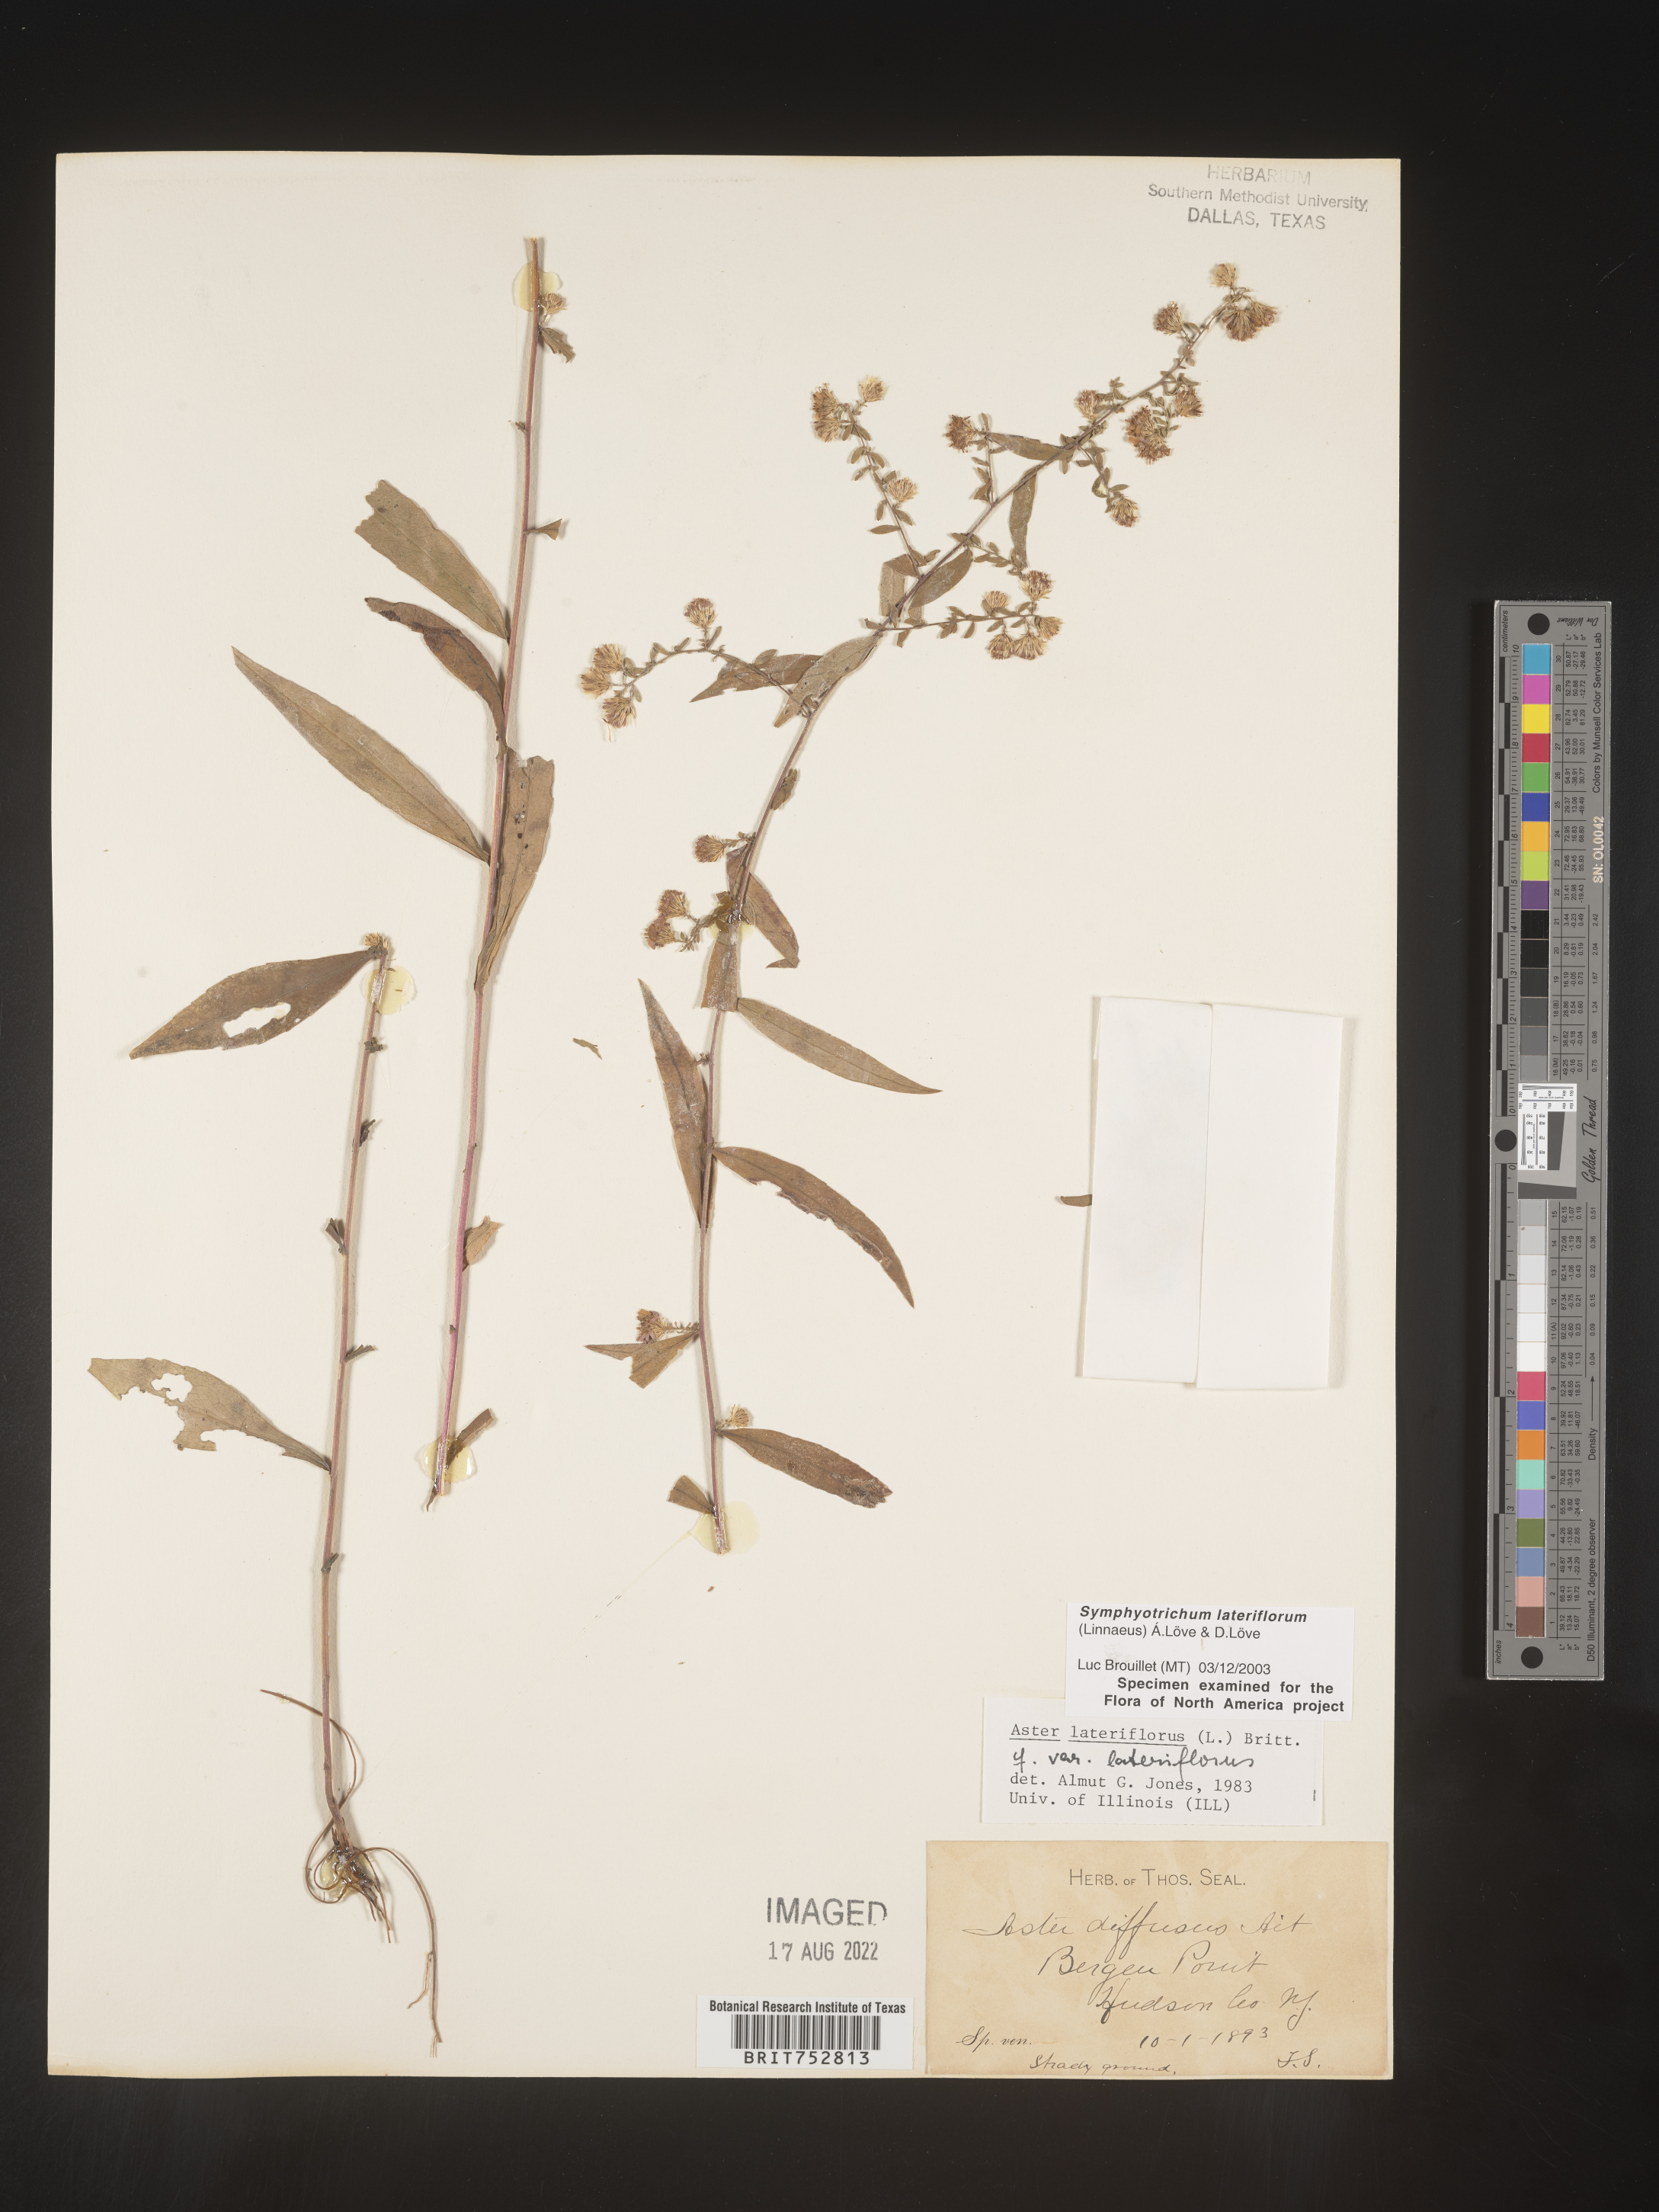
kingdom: Plantae
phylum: Tracheophyta
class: Magnoliopsida
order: Asterales
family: Asteraceae
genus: Symphyotrichum
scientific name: Symphyotrichum lateriflorum
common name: Calico aster
